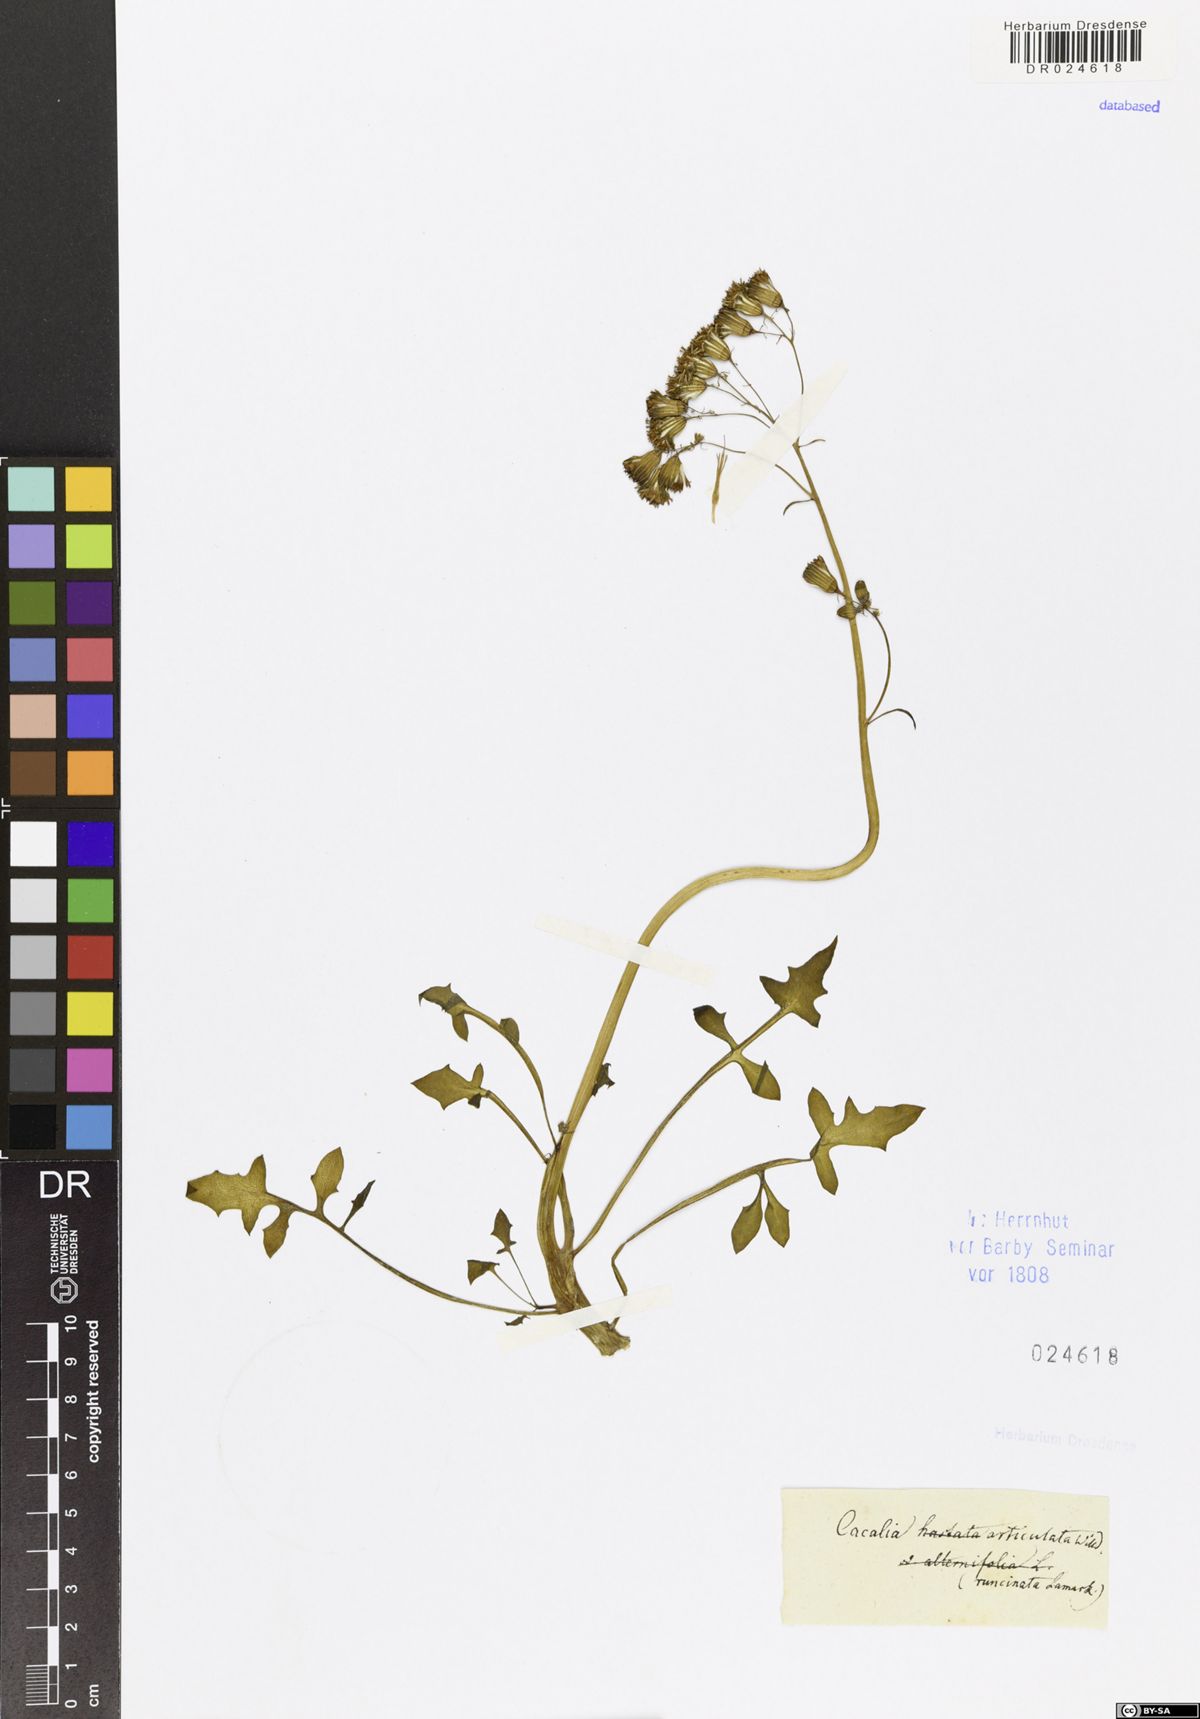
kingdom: Plantae
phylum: Tracheophyta
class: Magnoliopsida
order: Asterales
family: Asteraceae
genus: Curio
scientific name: Curio articulatus
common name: Candleplant
